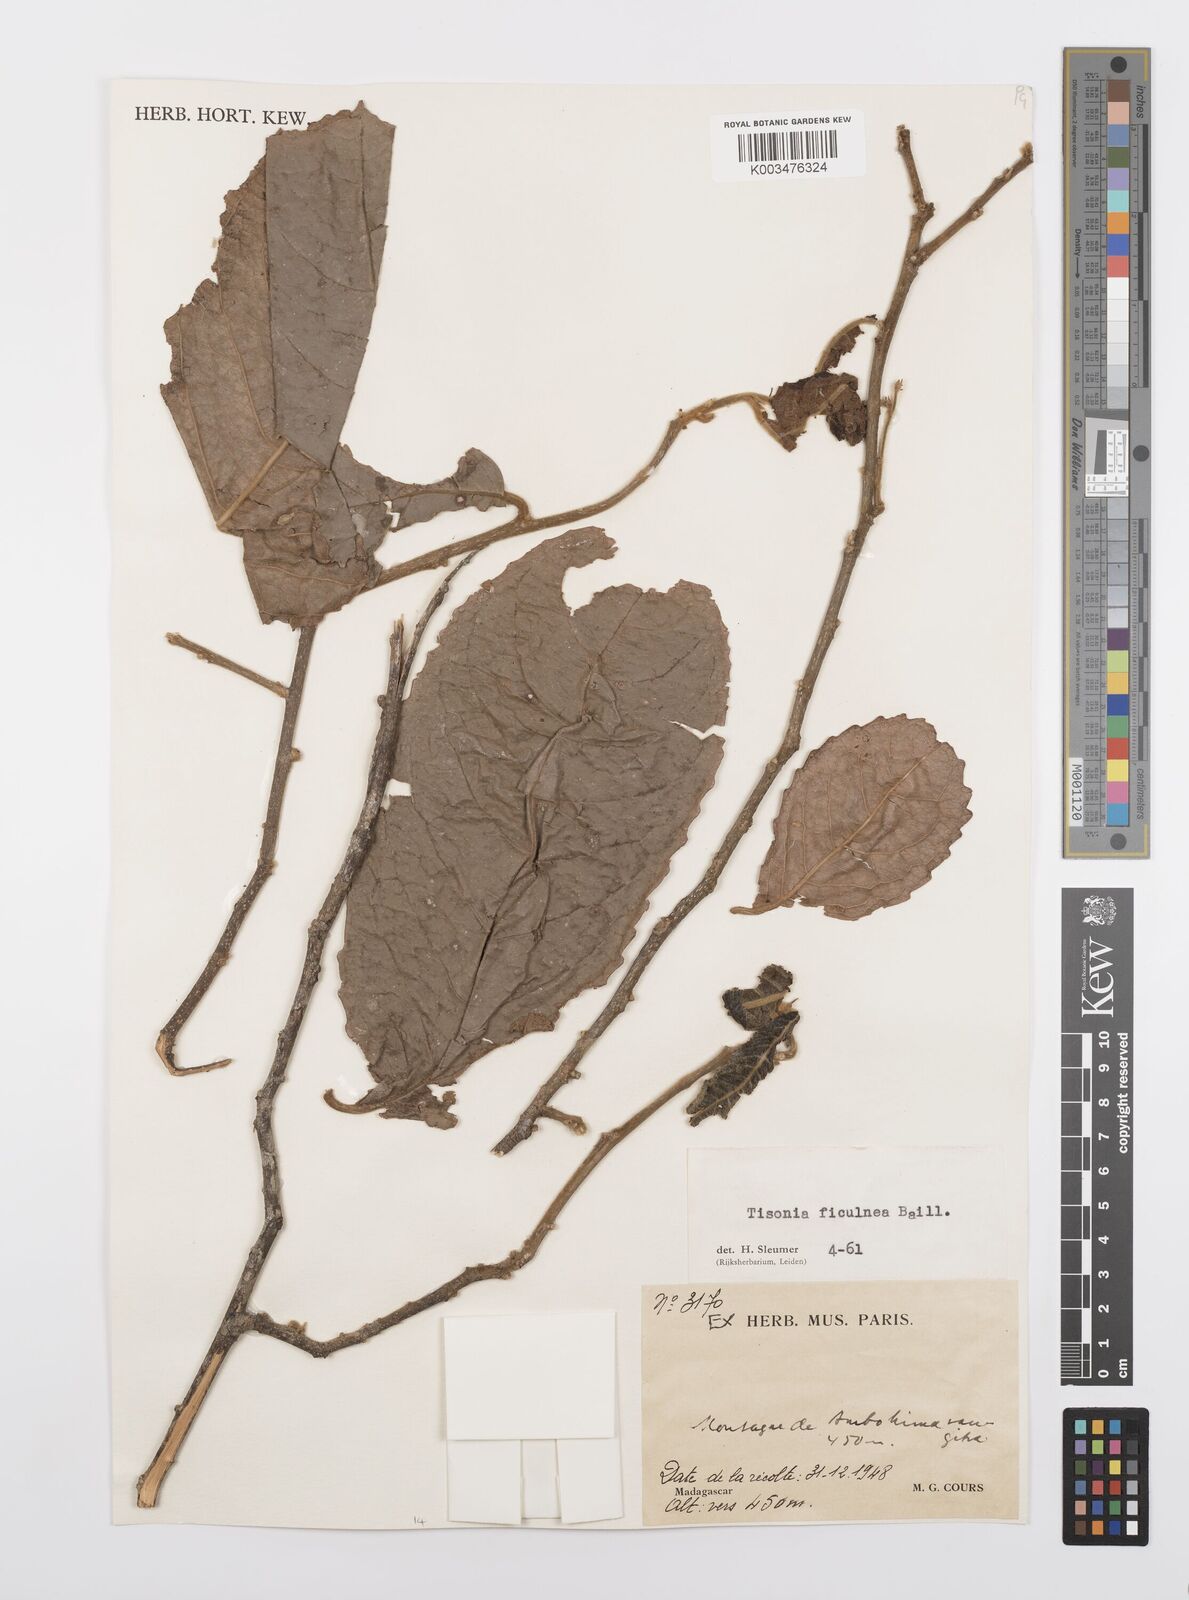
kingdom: Plantae
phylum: Tracheophyta
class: Magnoliopsida
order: Malpighiales
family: Salicaceae
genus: Tisonia
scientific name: Tisonia ficulnea
